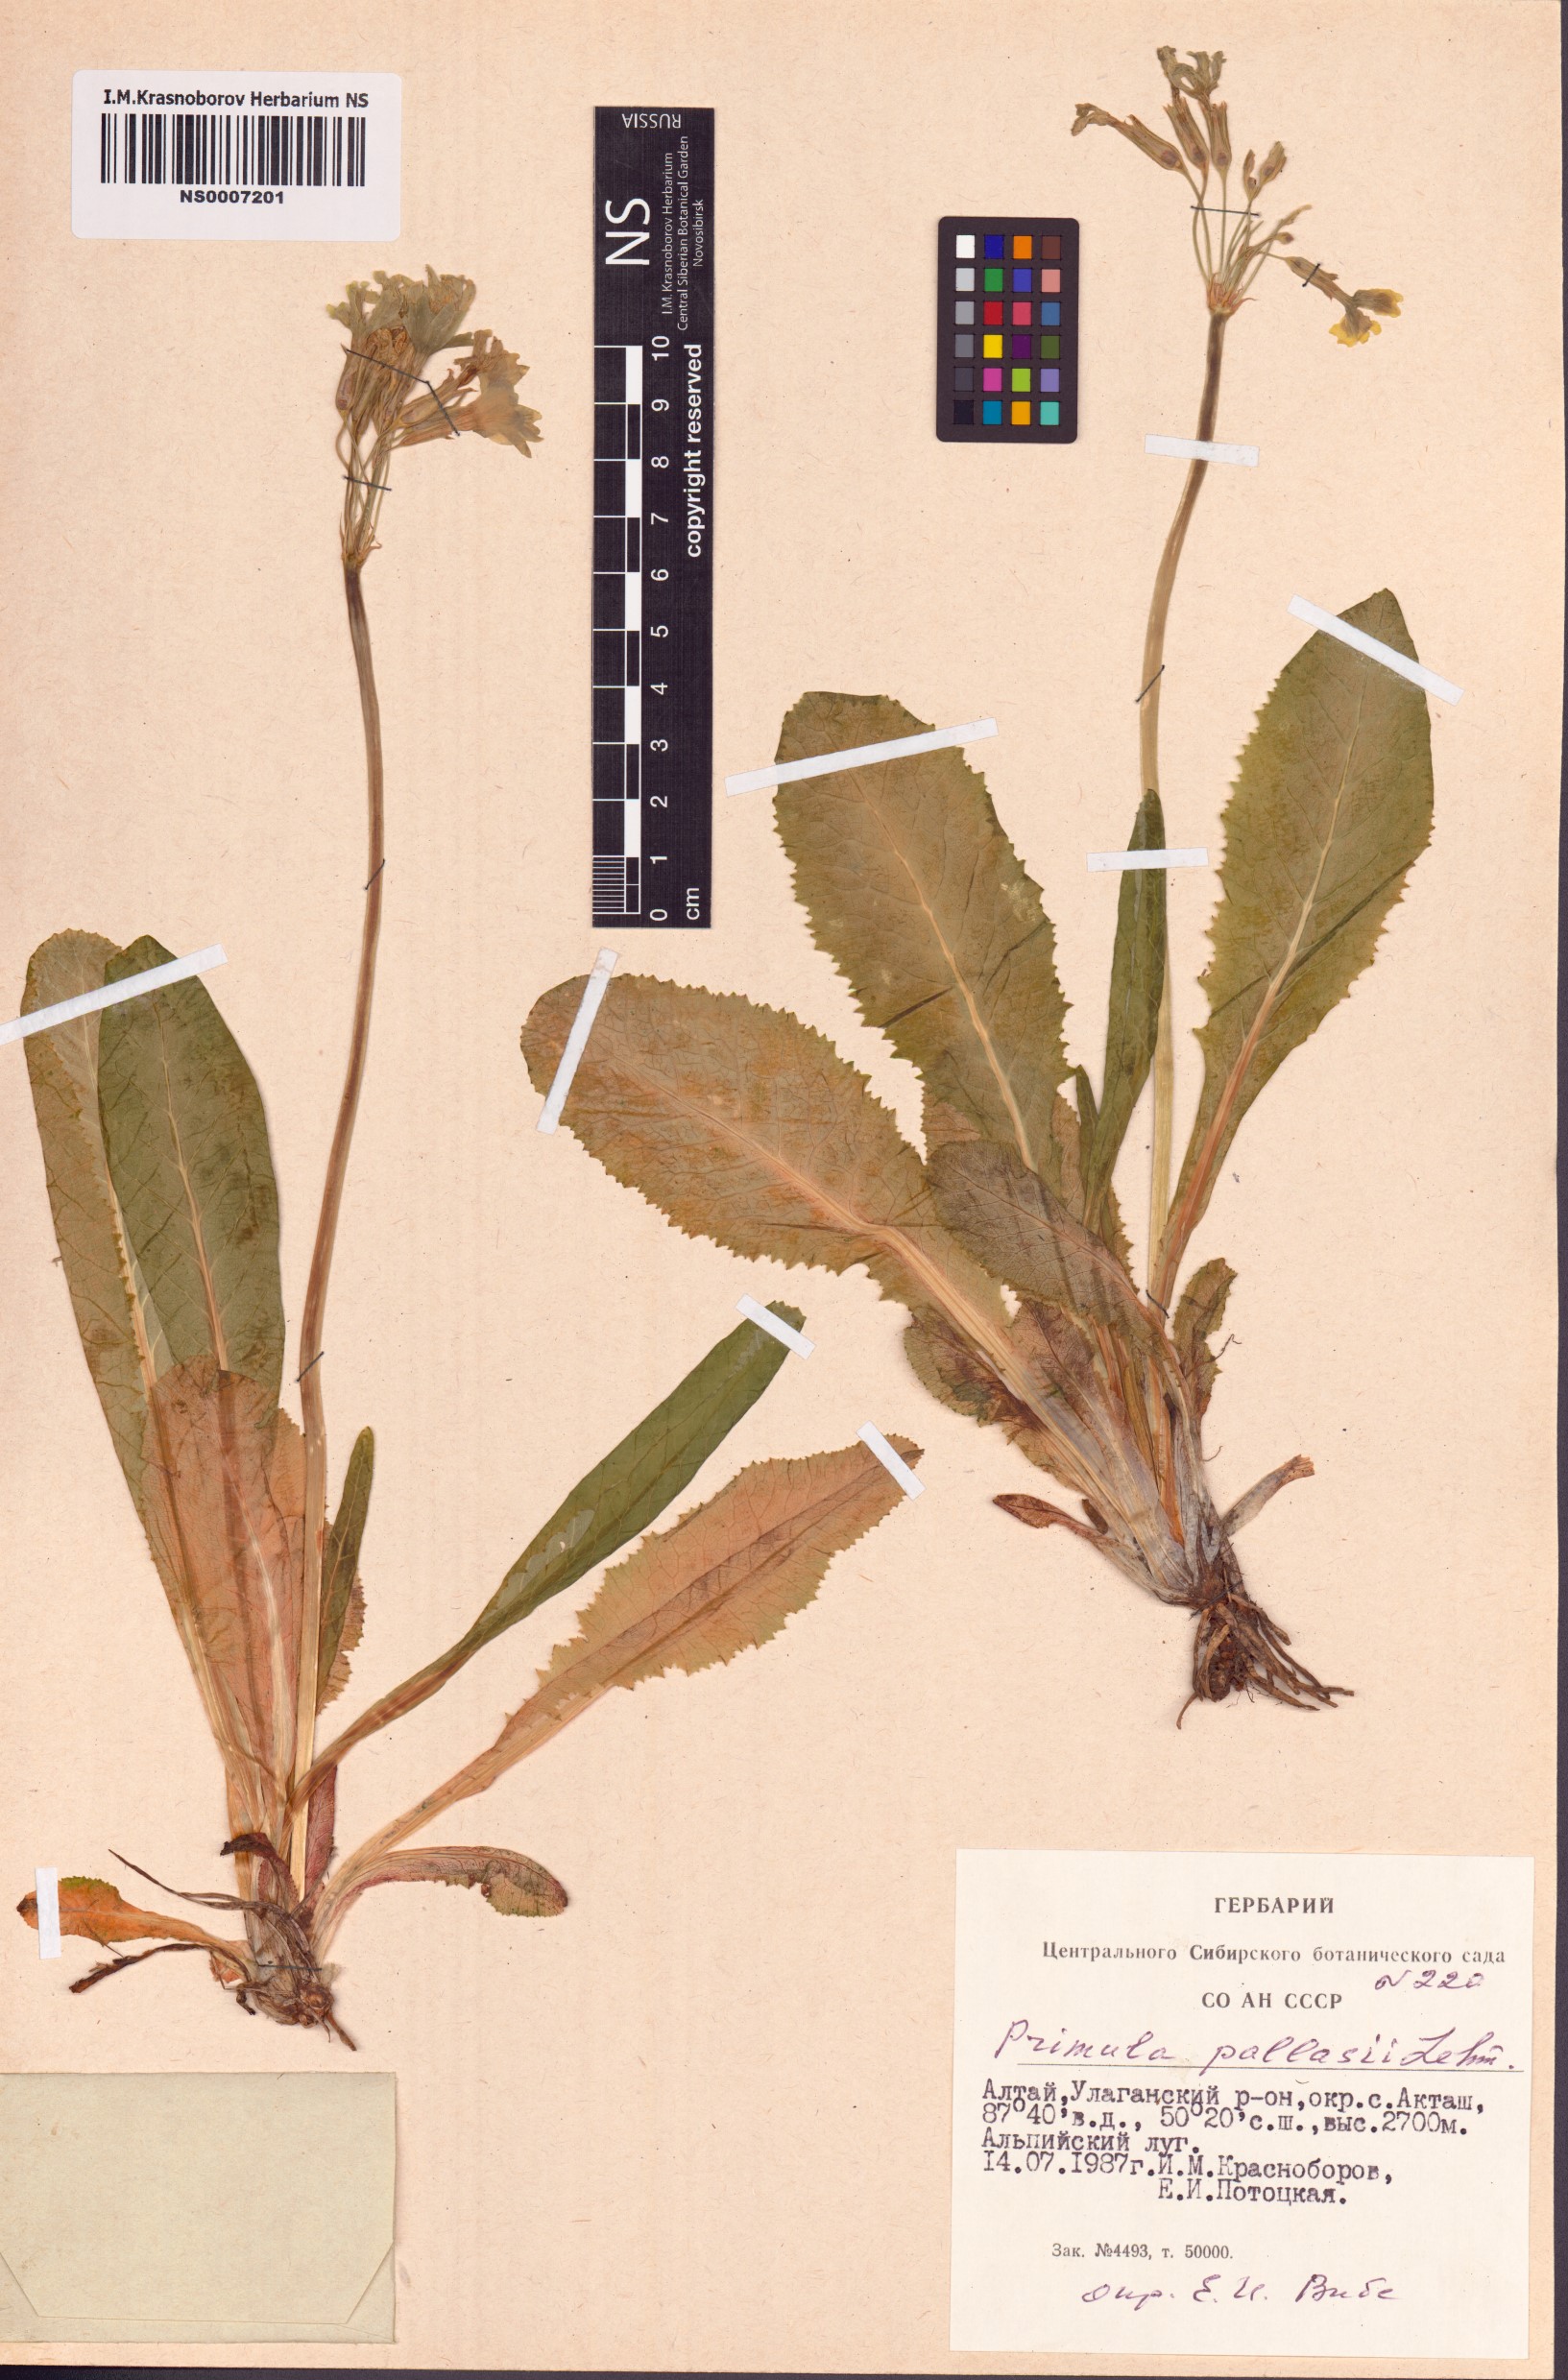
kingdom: Plantae
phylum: Tracheophyta
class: Magnoliopsida
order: Ericales
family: Primulaceae
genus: Primula
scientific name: Primula elatior
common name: Oxlip
